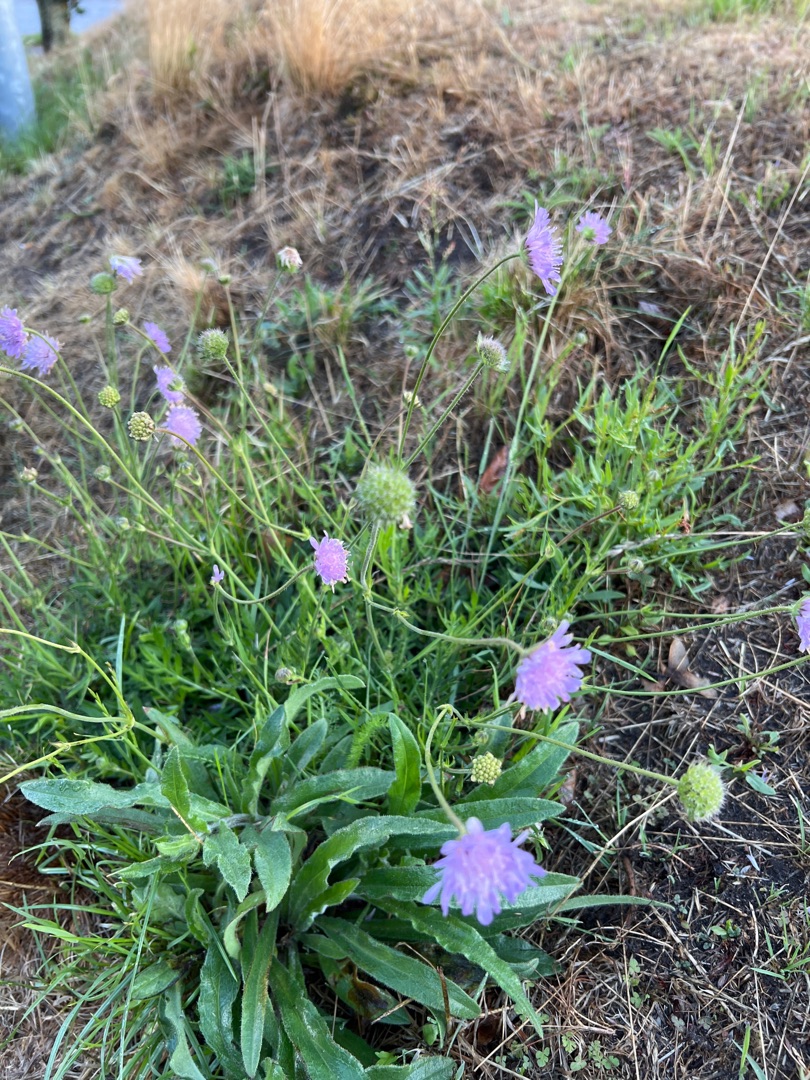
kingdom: Plantae
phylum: Tracheophyta
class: Magnoliopsida
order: Dipsacales
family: Caprifoliaceae
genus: Knautia
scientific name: Knautia arvensis
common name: Blåhat
